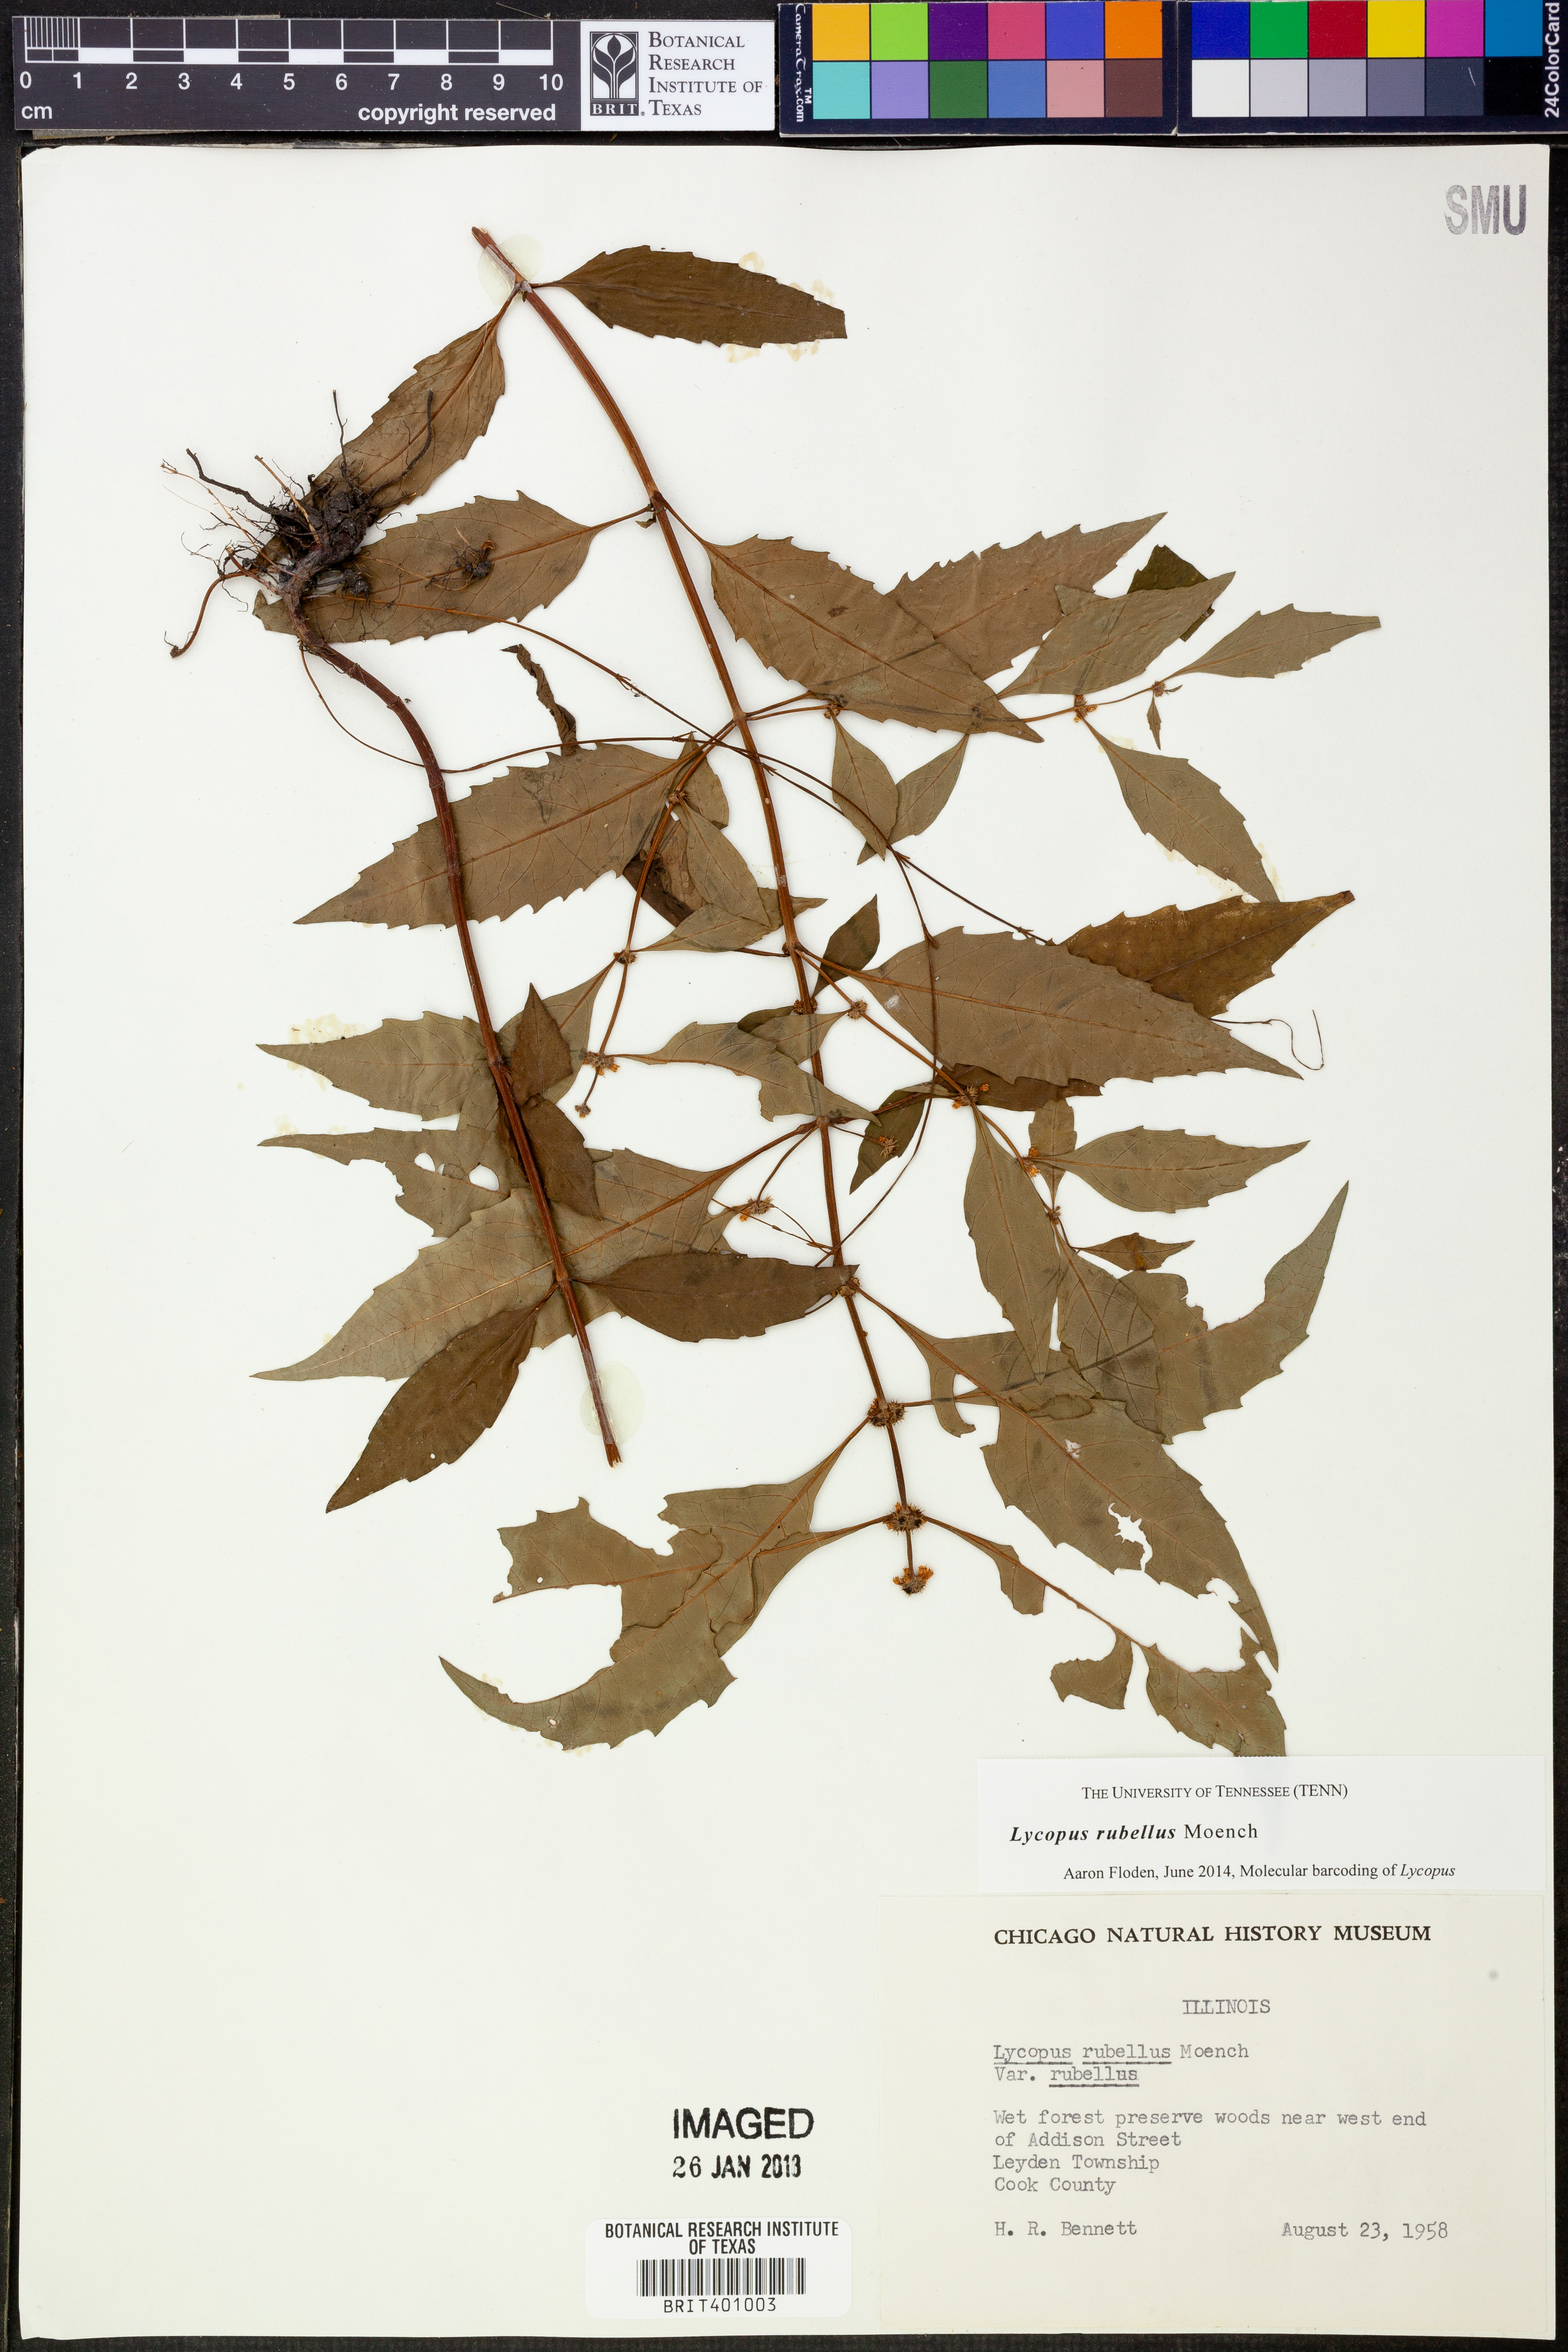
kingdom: Plantae
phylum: Tracheophyta
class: Magnoliopsida
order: Lamiales
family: Lamiaceae
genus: Lycopus
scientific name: Lycopus rubellus
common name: Stalked bugleweed
